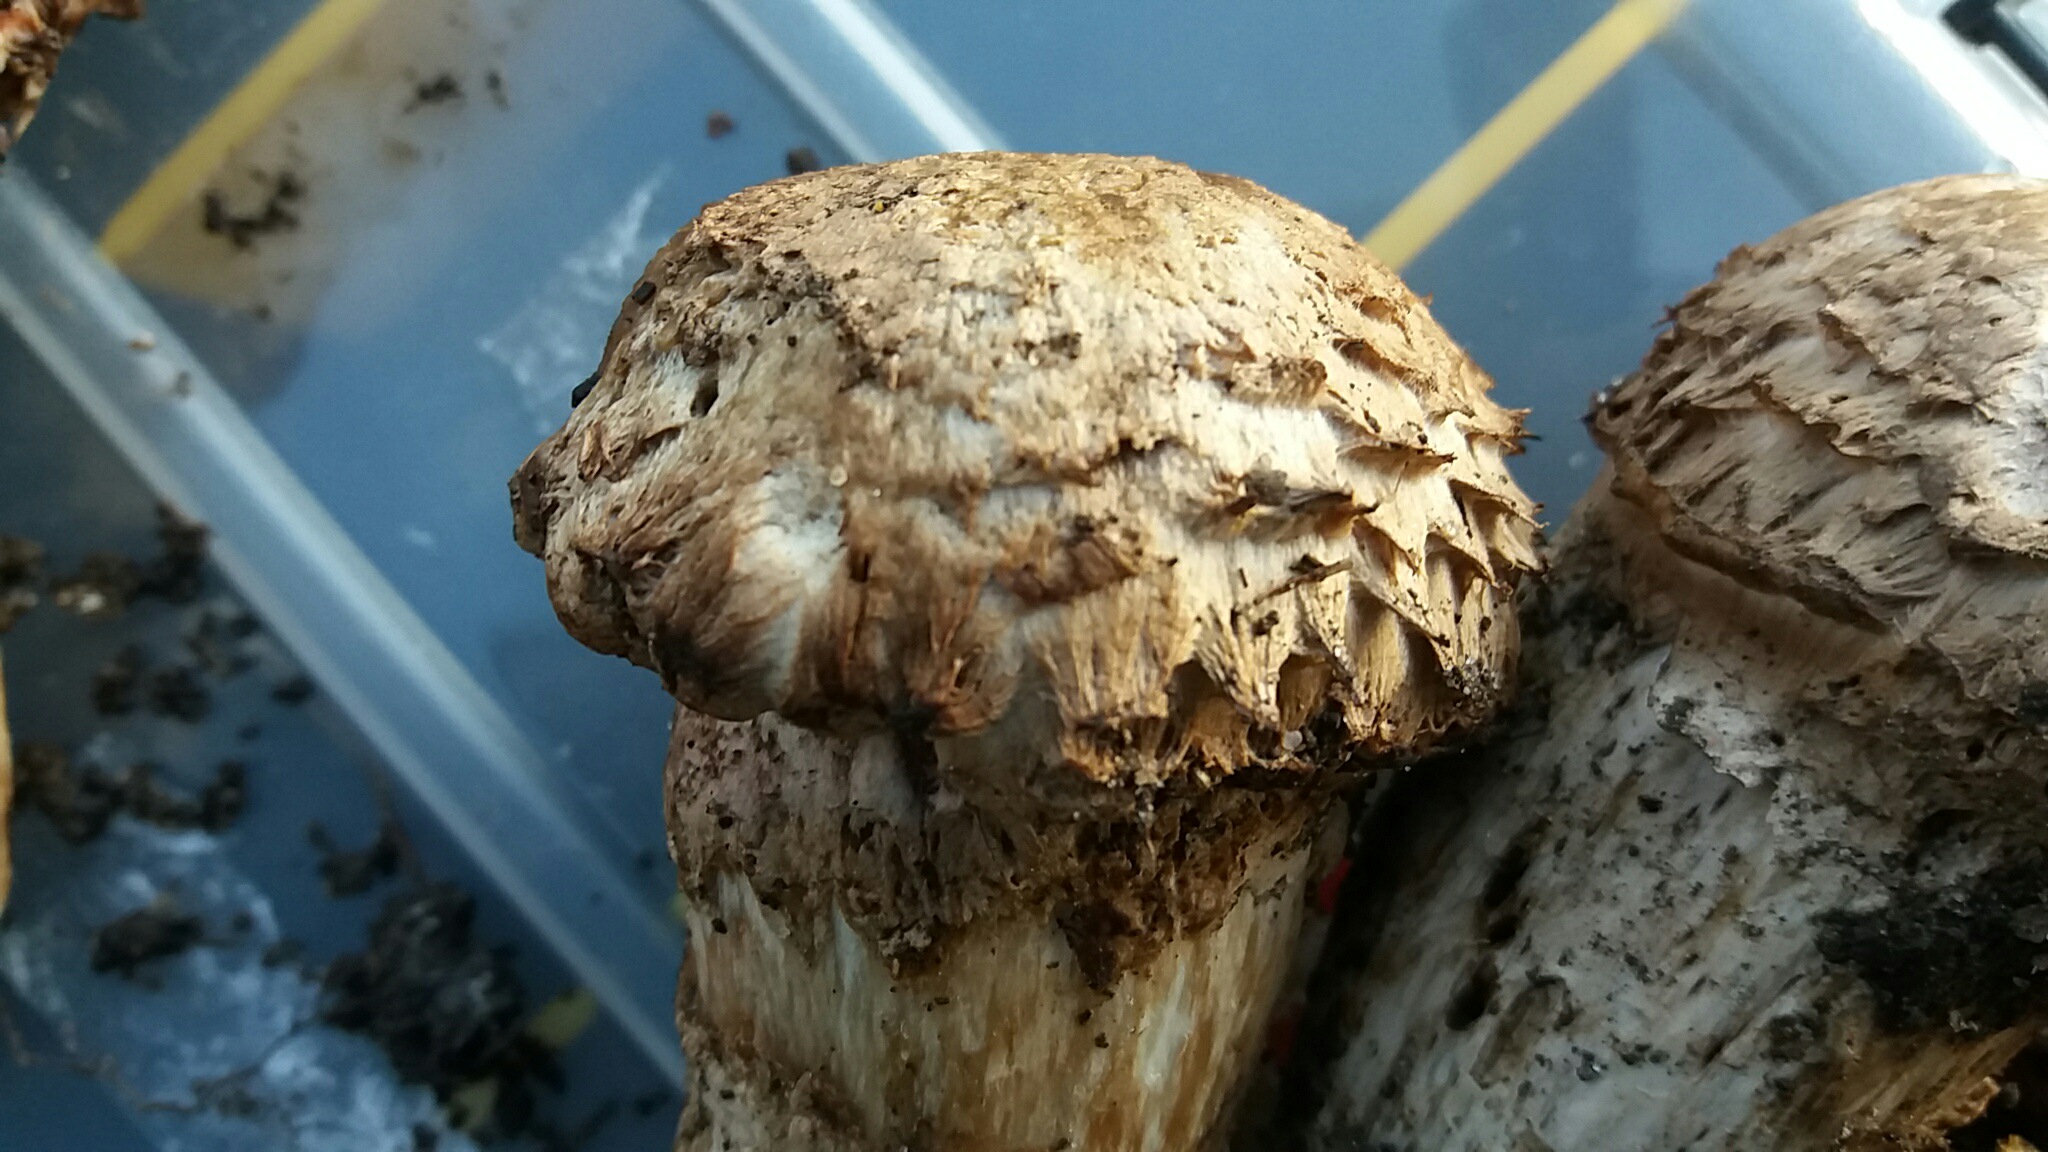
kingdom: Fungi
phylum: Basidiomycota
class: Agaricomycetes
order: Agaricales
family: Agaricaceae
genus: Agaricus
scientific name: Agaricus bohusii
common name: krumskællet champignon
